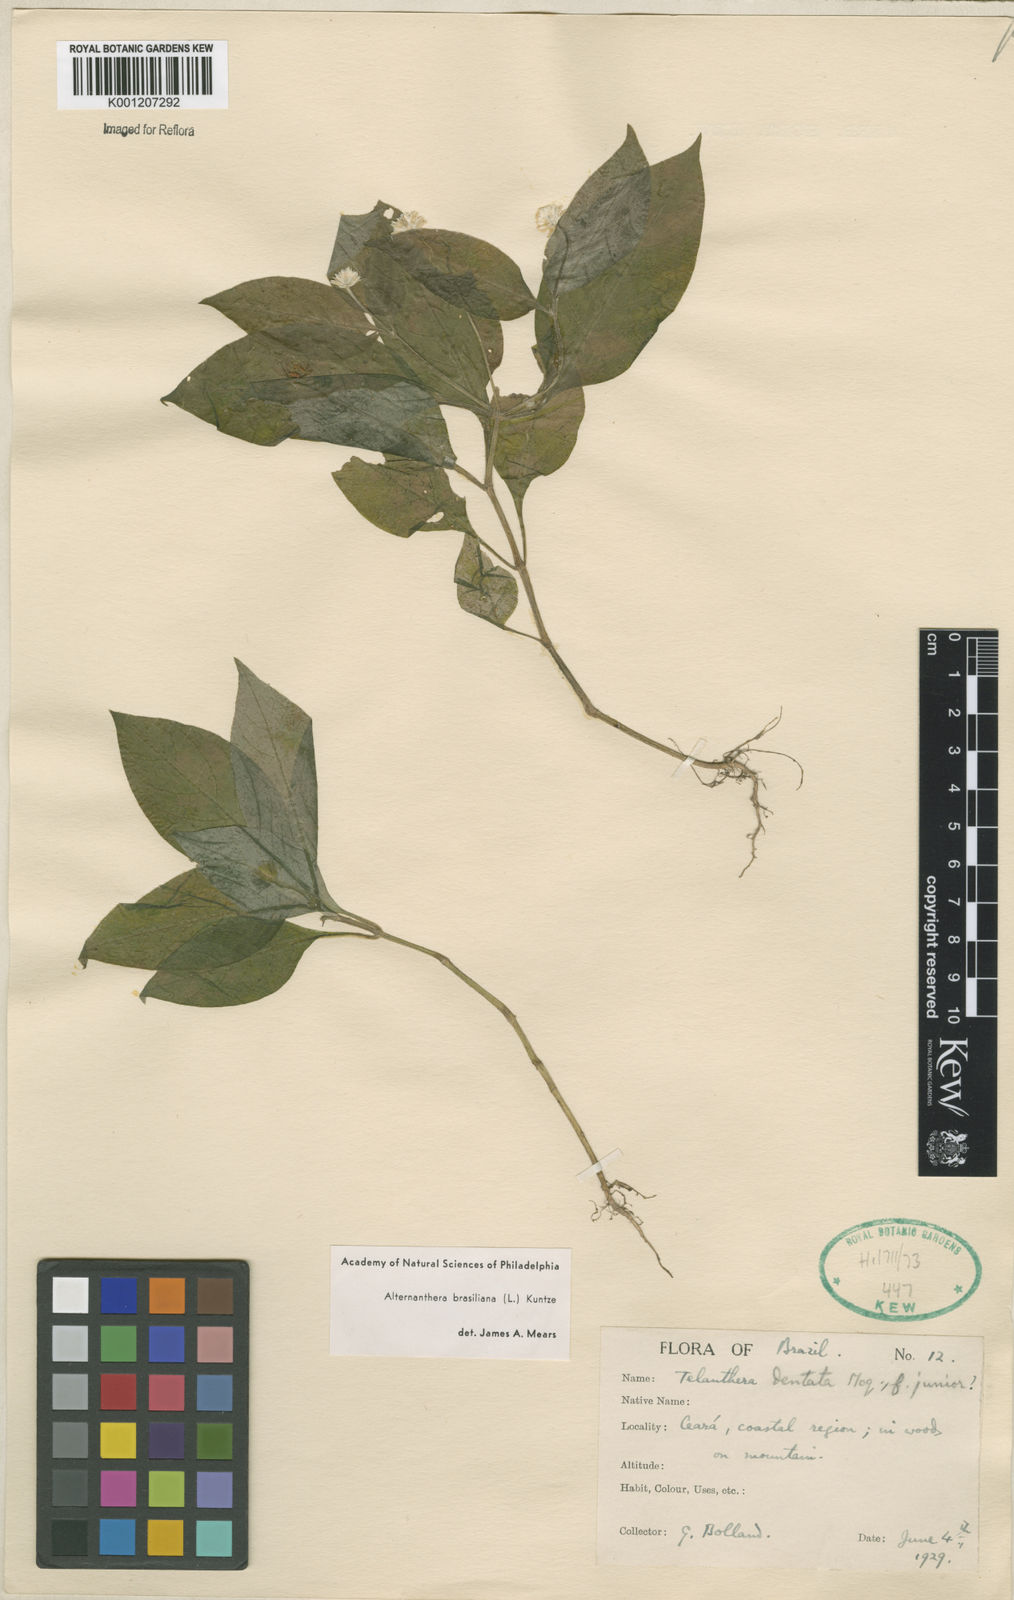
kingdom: Plantae
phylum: Tracheophyta
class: Magnoliopsida
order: Caryophyllales
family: Amaranthaceae
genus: Alternanthera
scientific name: Alternanthera brasiliana
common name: Brazilian joyweed
